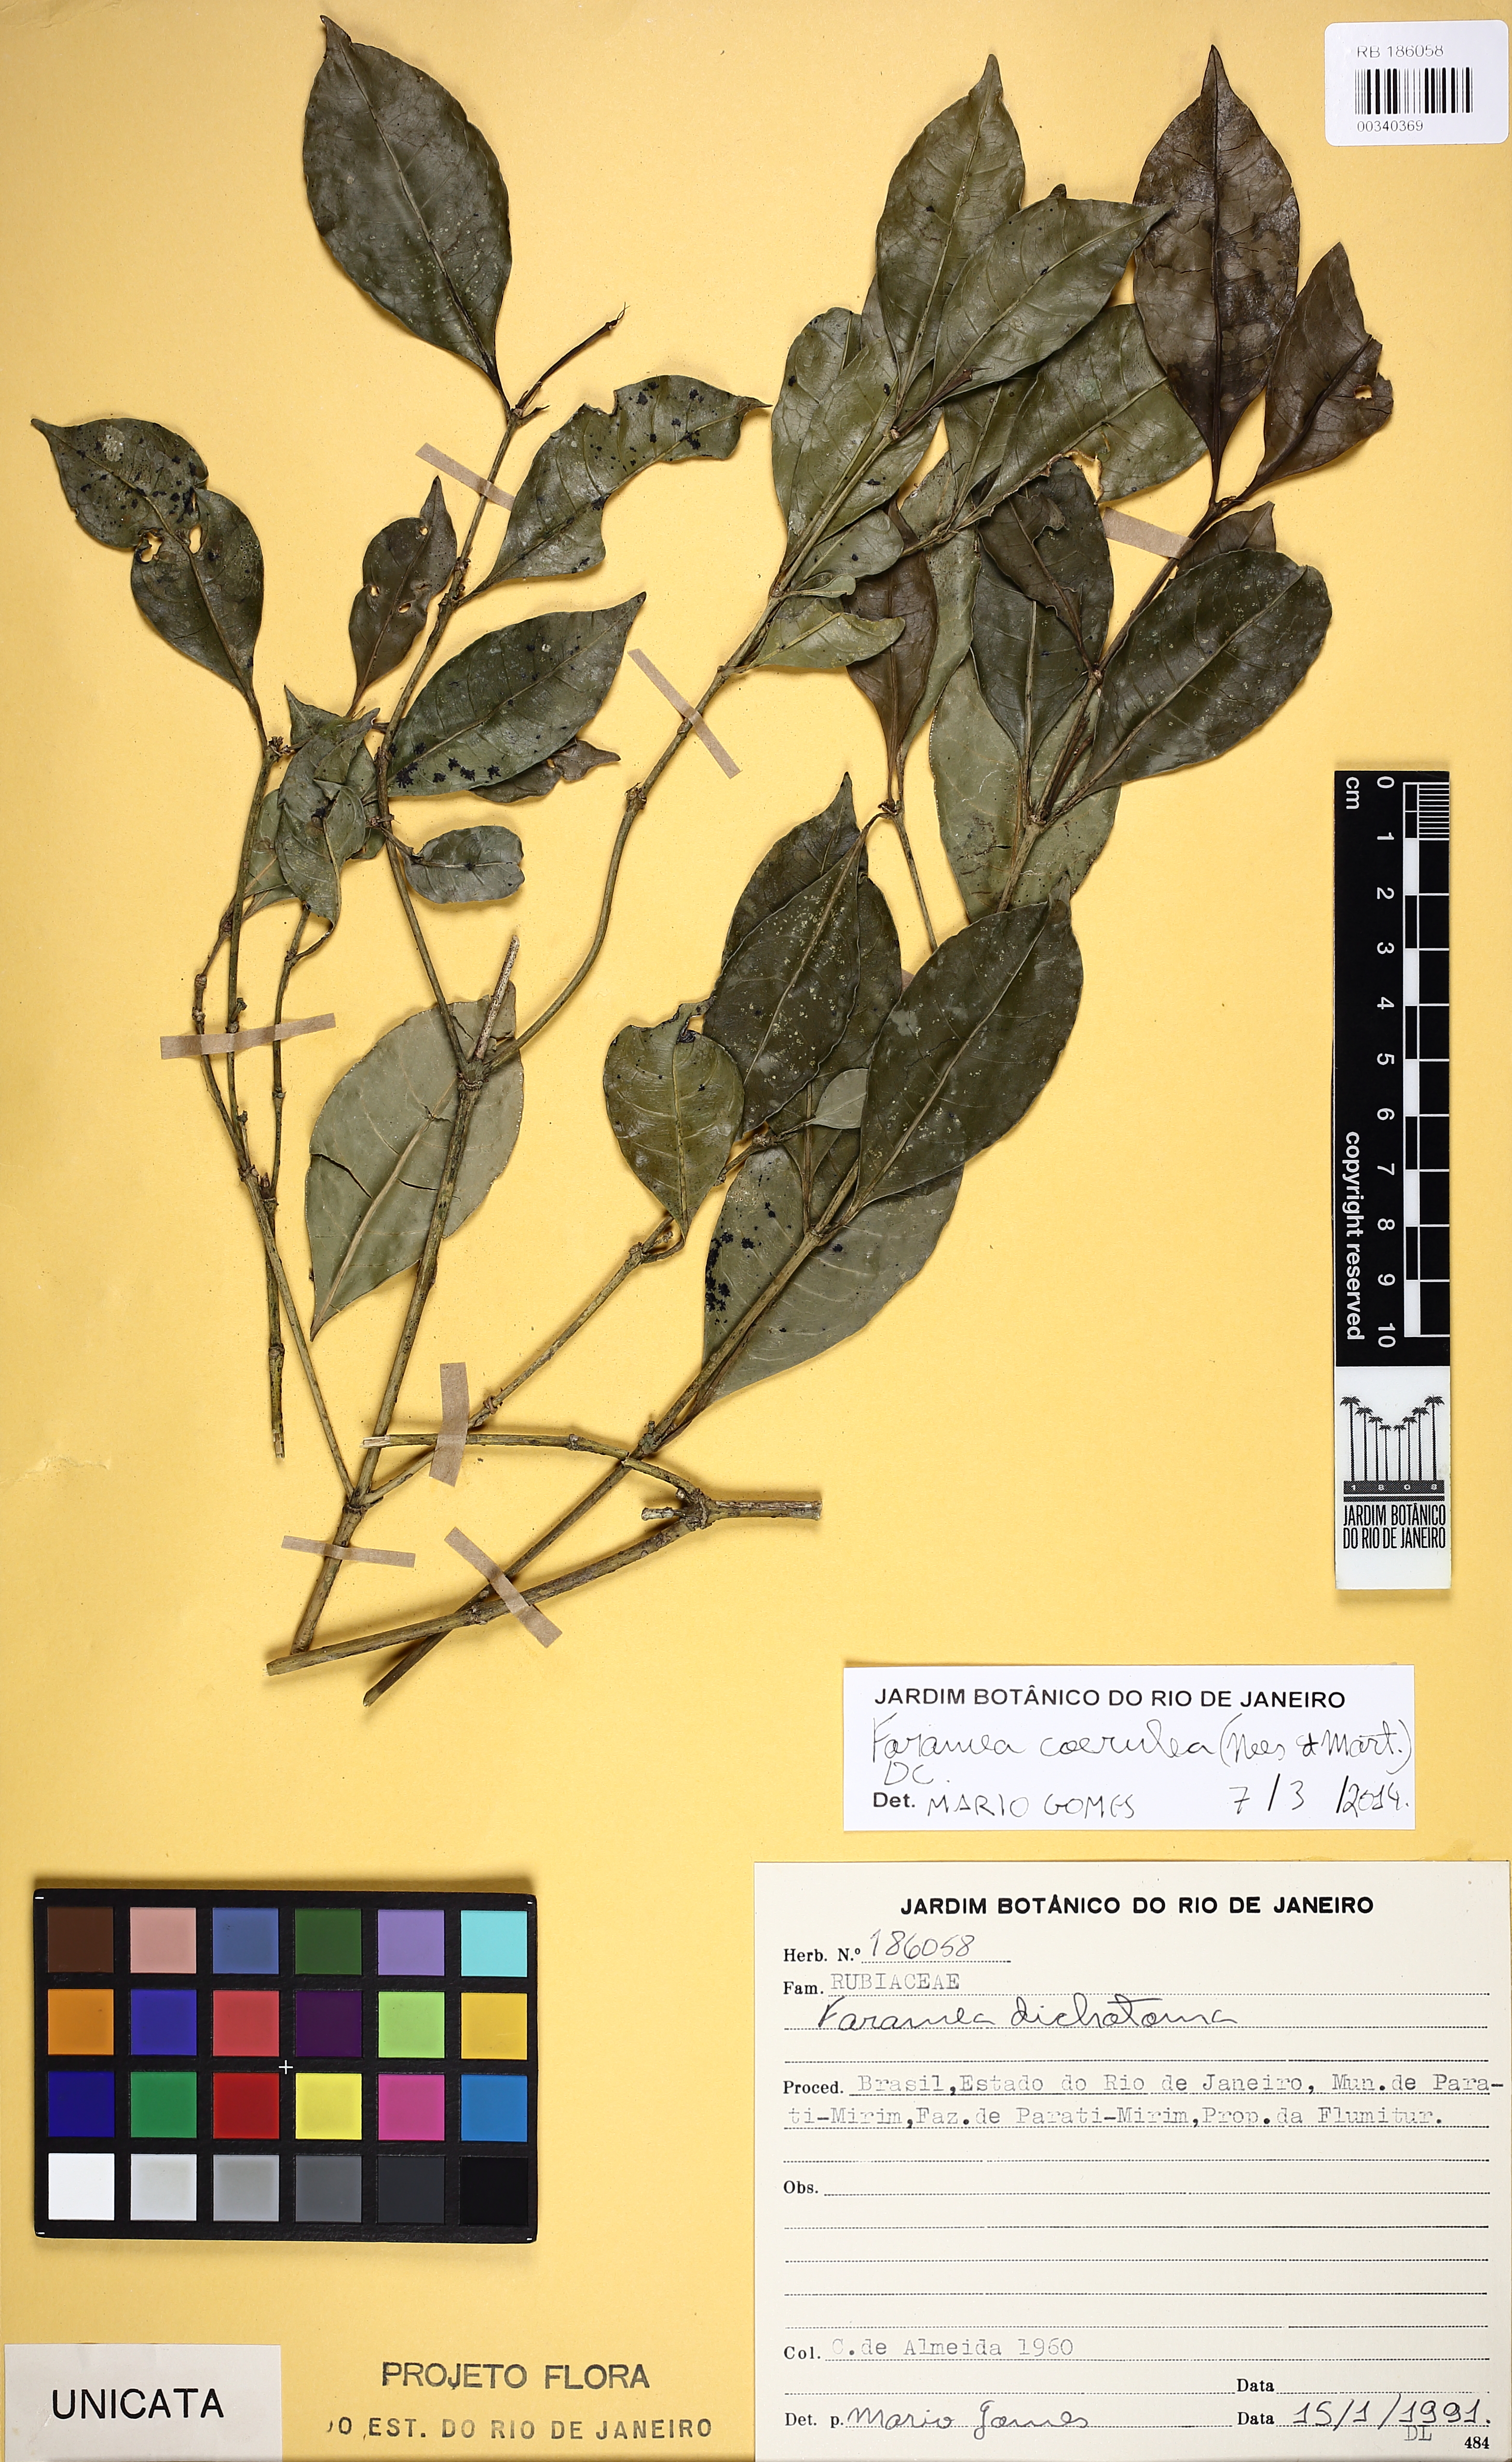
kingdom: Plantae
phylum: Tracheophyta
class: Magnoliopsida
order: Gentianales
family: Rubiaceae
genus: Faramea
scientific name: Faramea oligantha
